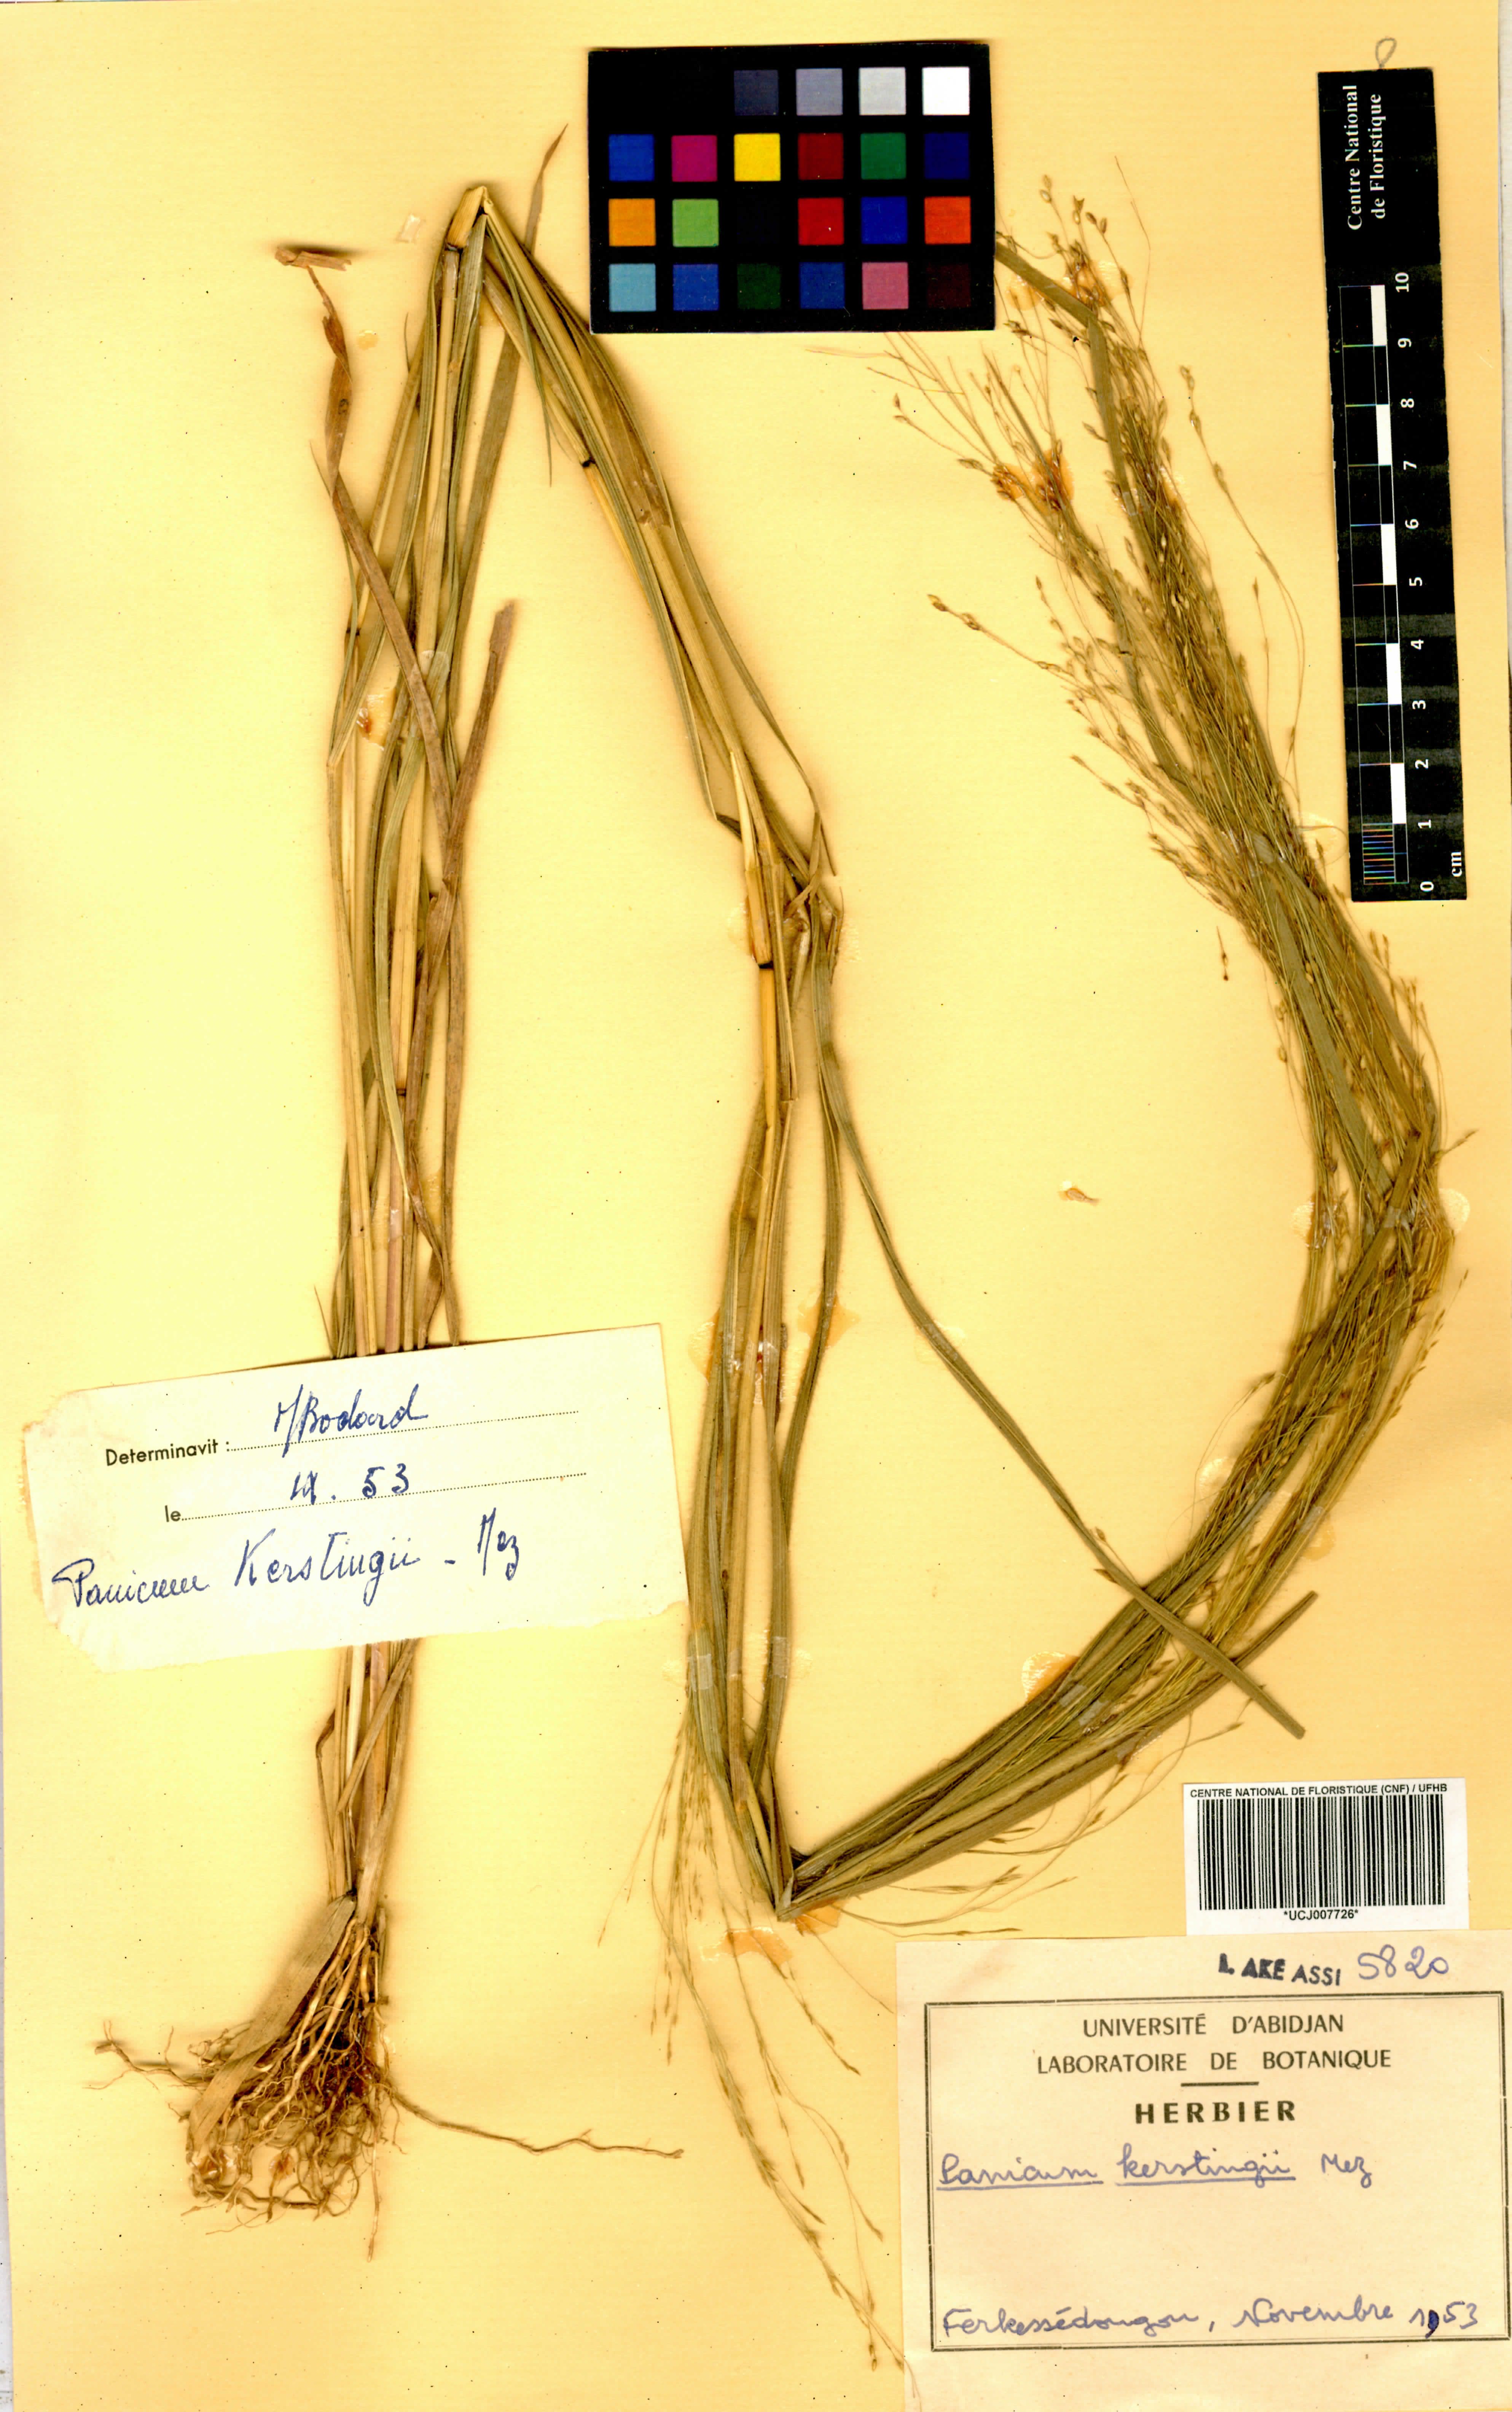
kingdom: Plantae
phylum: Tracheophyta
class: Liliopsida
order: Poales
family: Poaceae
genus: Panicum
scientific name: Panicum pansum
